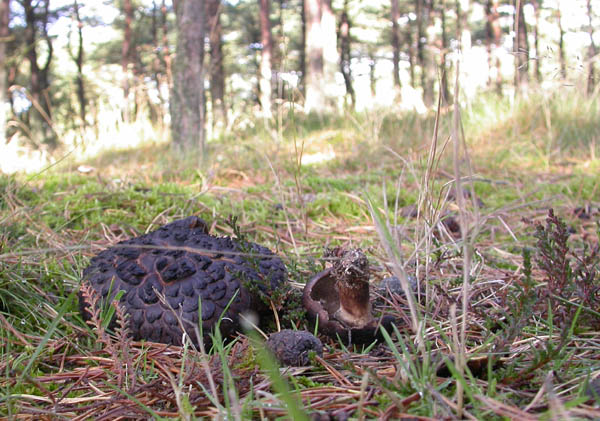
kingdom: Fungi
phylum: Basidiomycota
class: Agaricomycetes
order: Thelephorales
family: Bankeraceae
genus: Sarcodon
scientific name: Sarcodon squamosus
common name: småskællet kødpigsvamp
